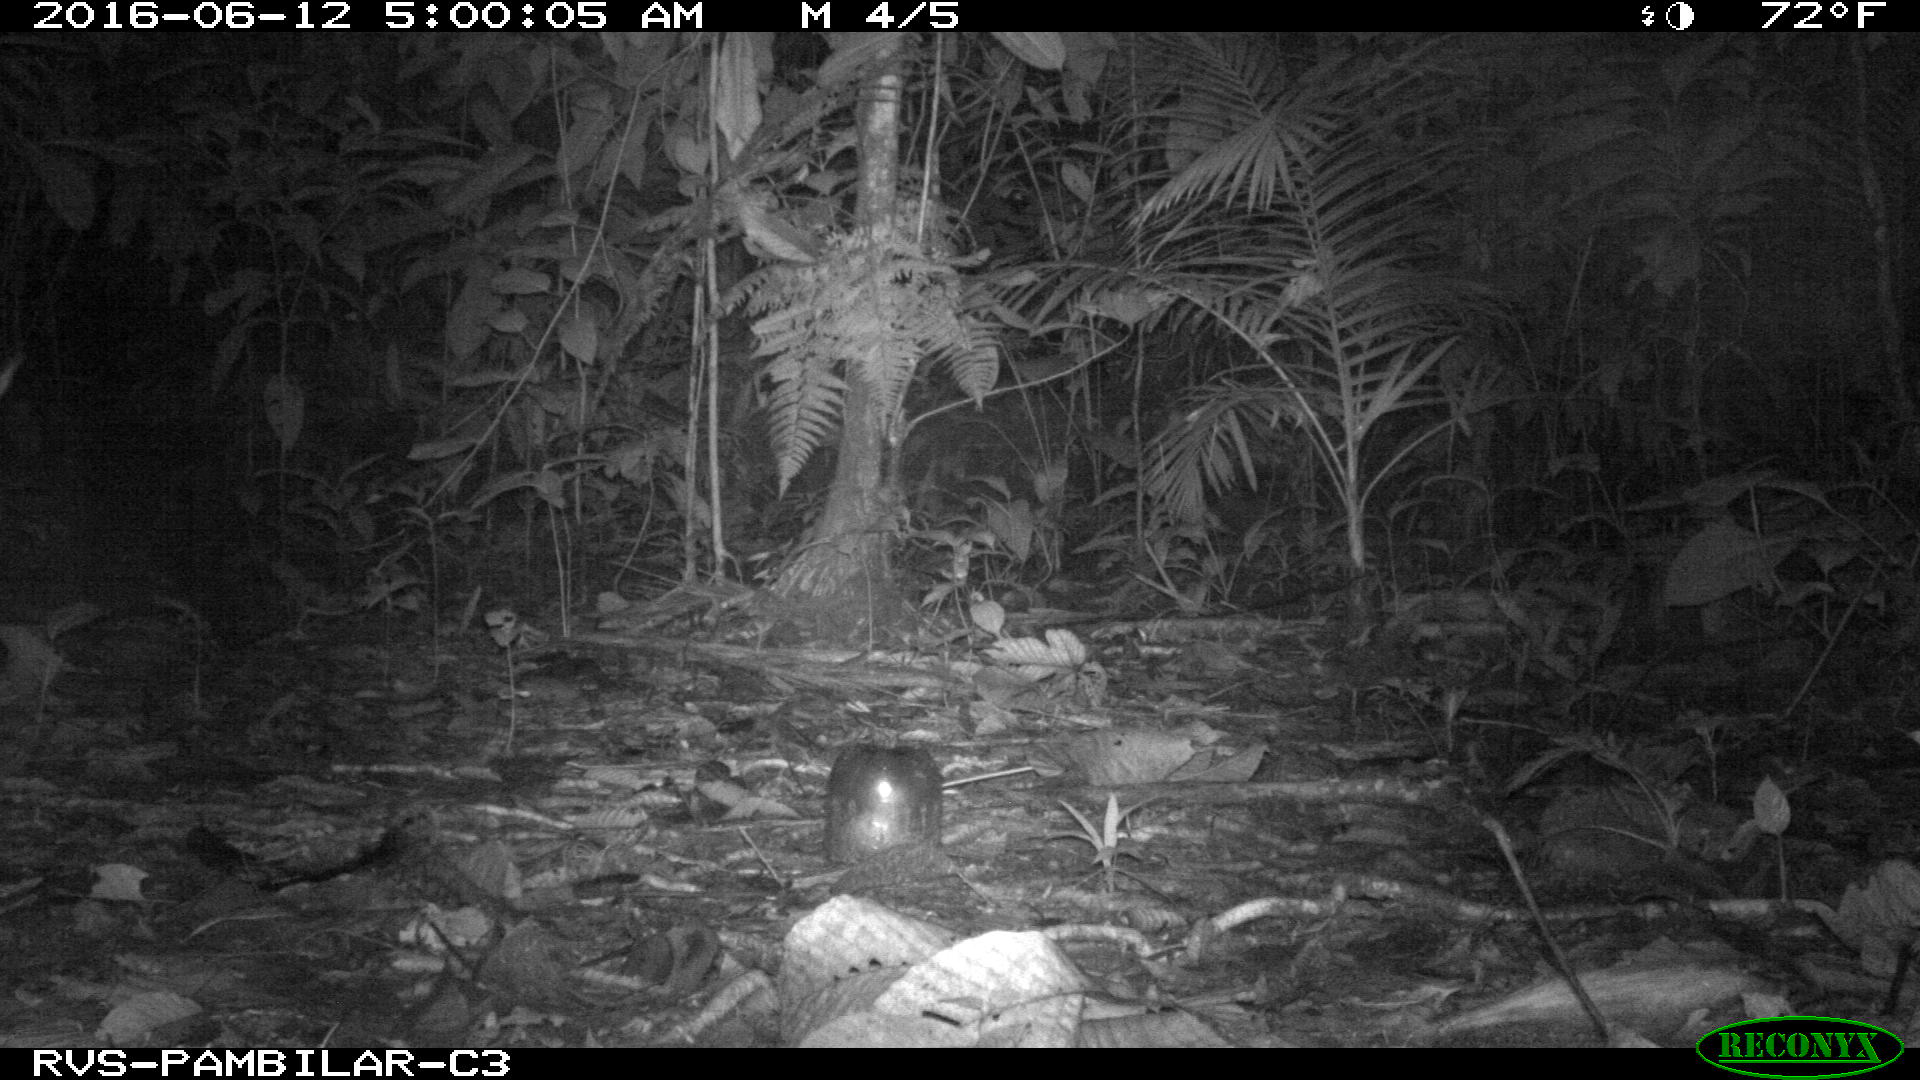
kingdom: Animalia
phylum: Chordata
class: Mammalia
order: Artiodactyla
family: Cervidae
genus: Mazama
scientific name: Mazama americana
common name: Red brocket
